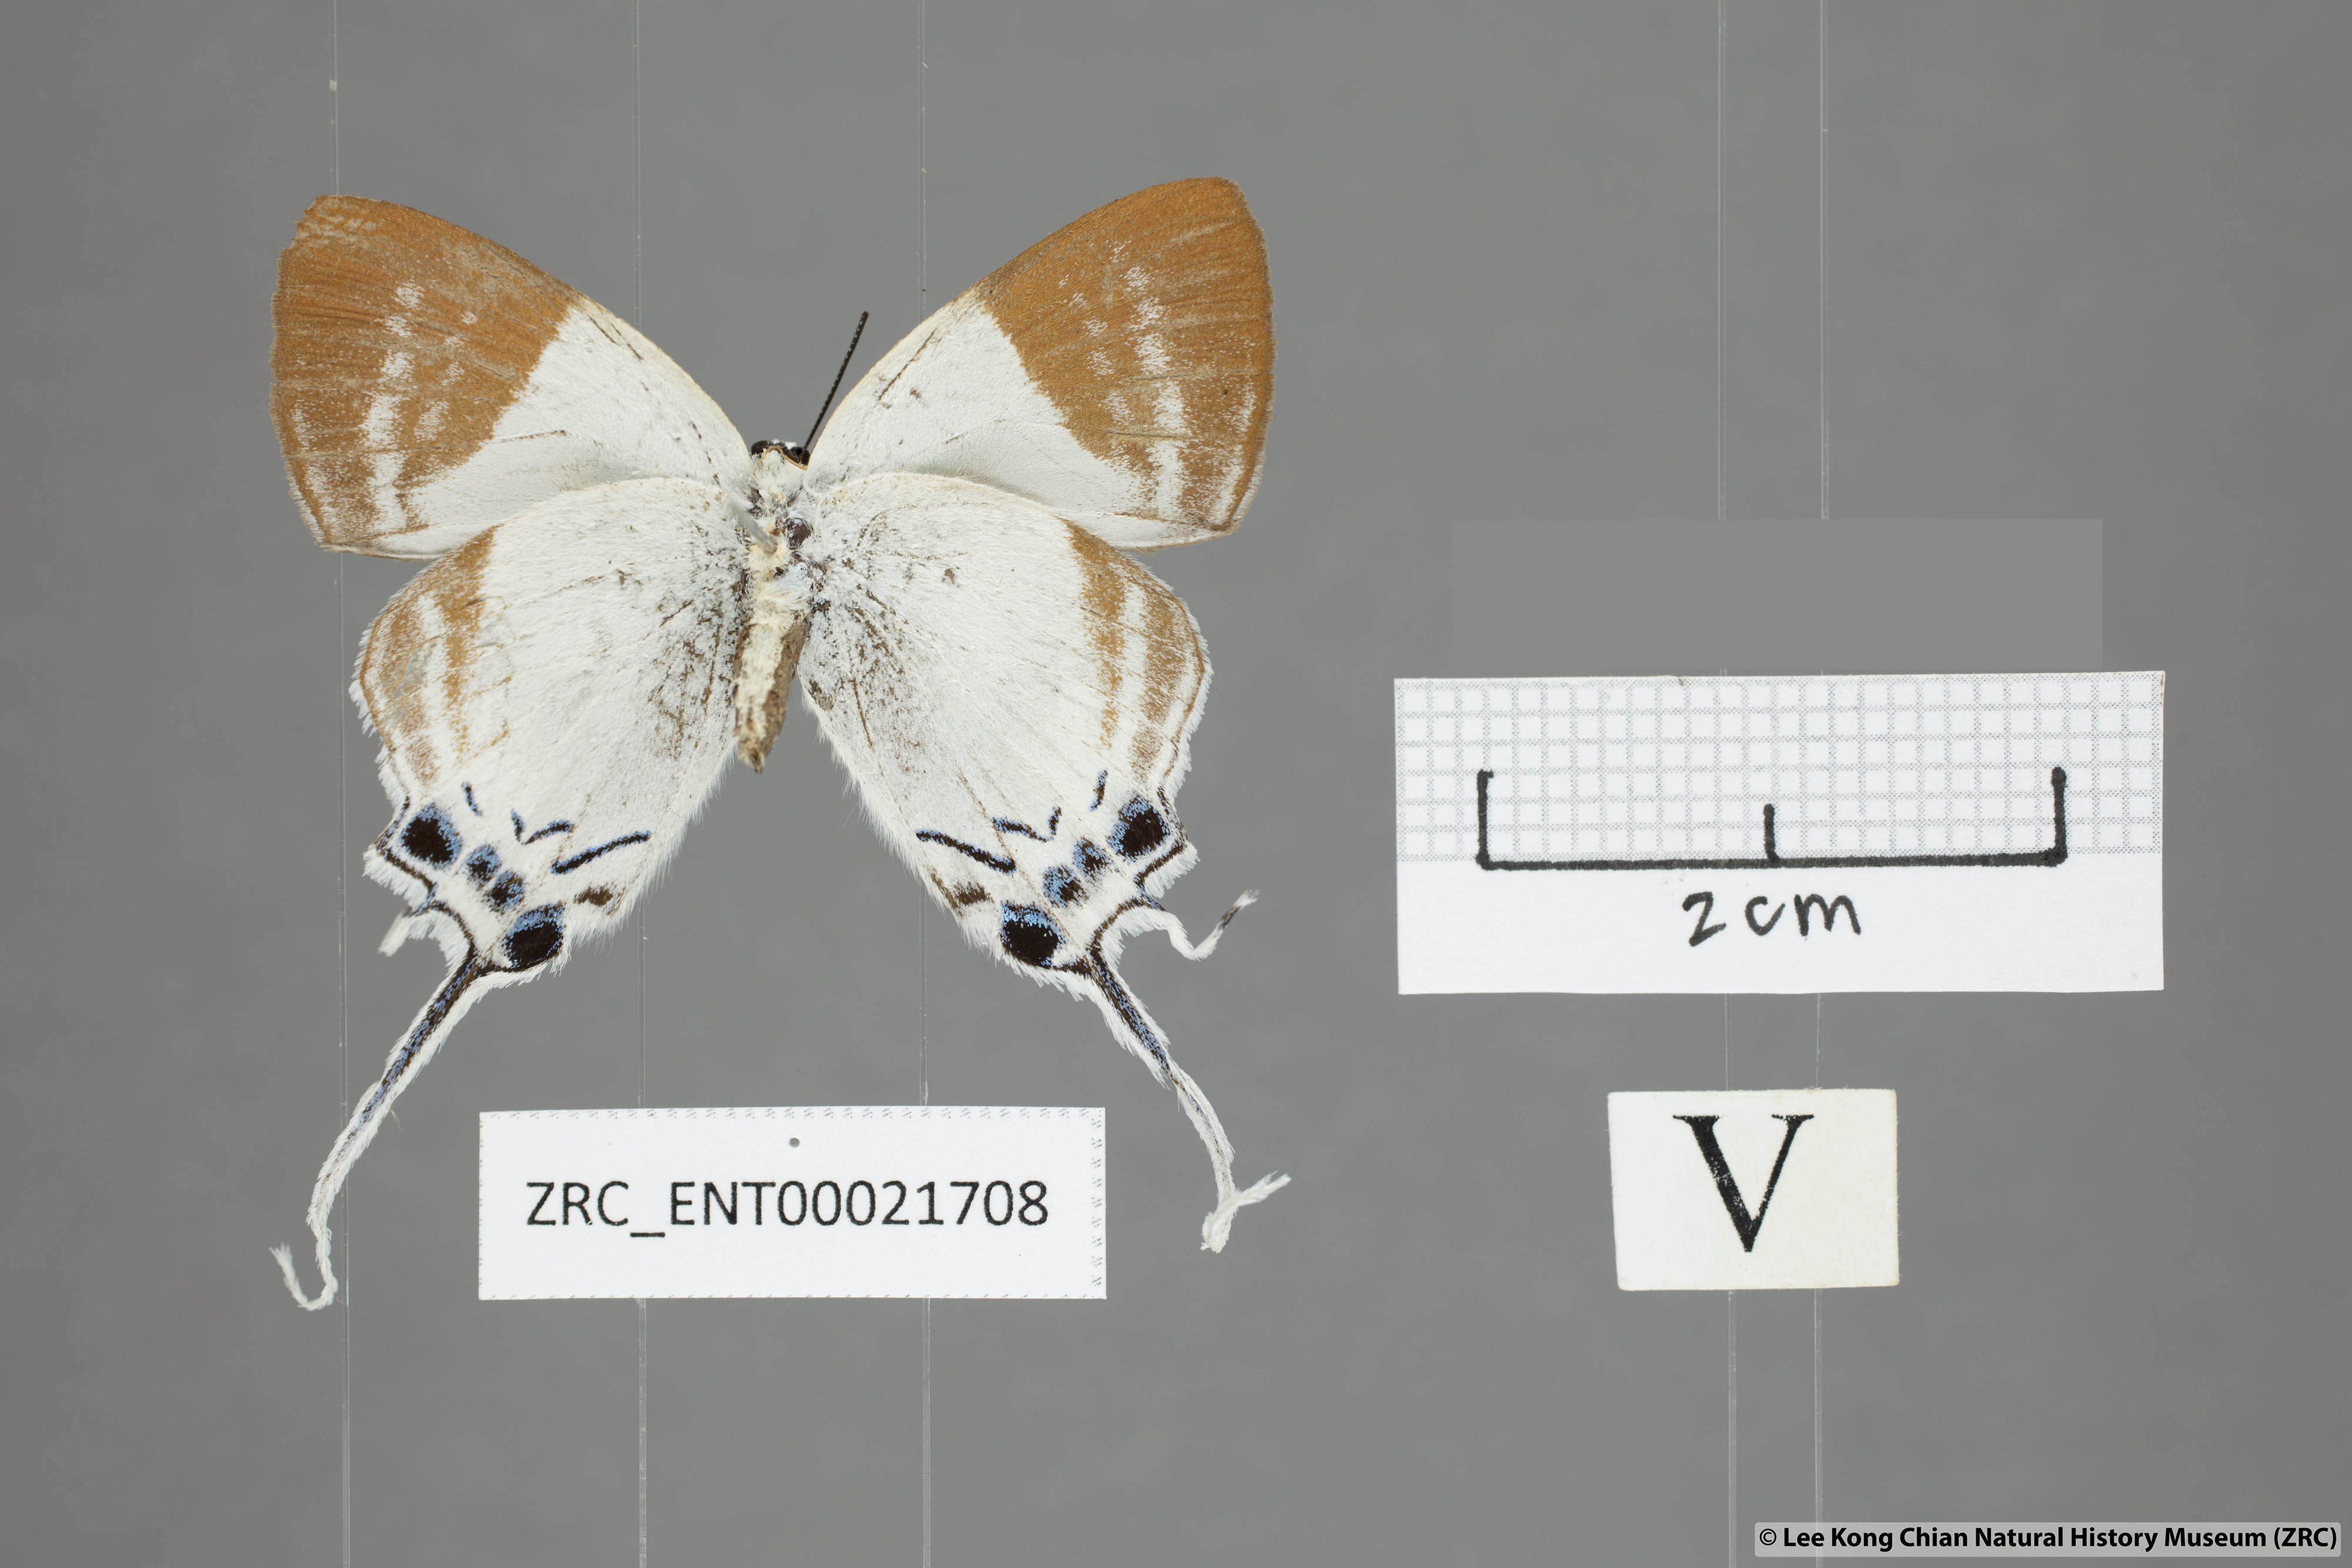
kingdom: Animalia
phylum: Arthropoda
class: Insecta
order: Lepidoptera
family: Lycaenidae
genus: Neocheritra
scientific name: Neocheritra
